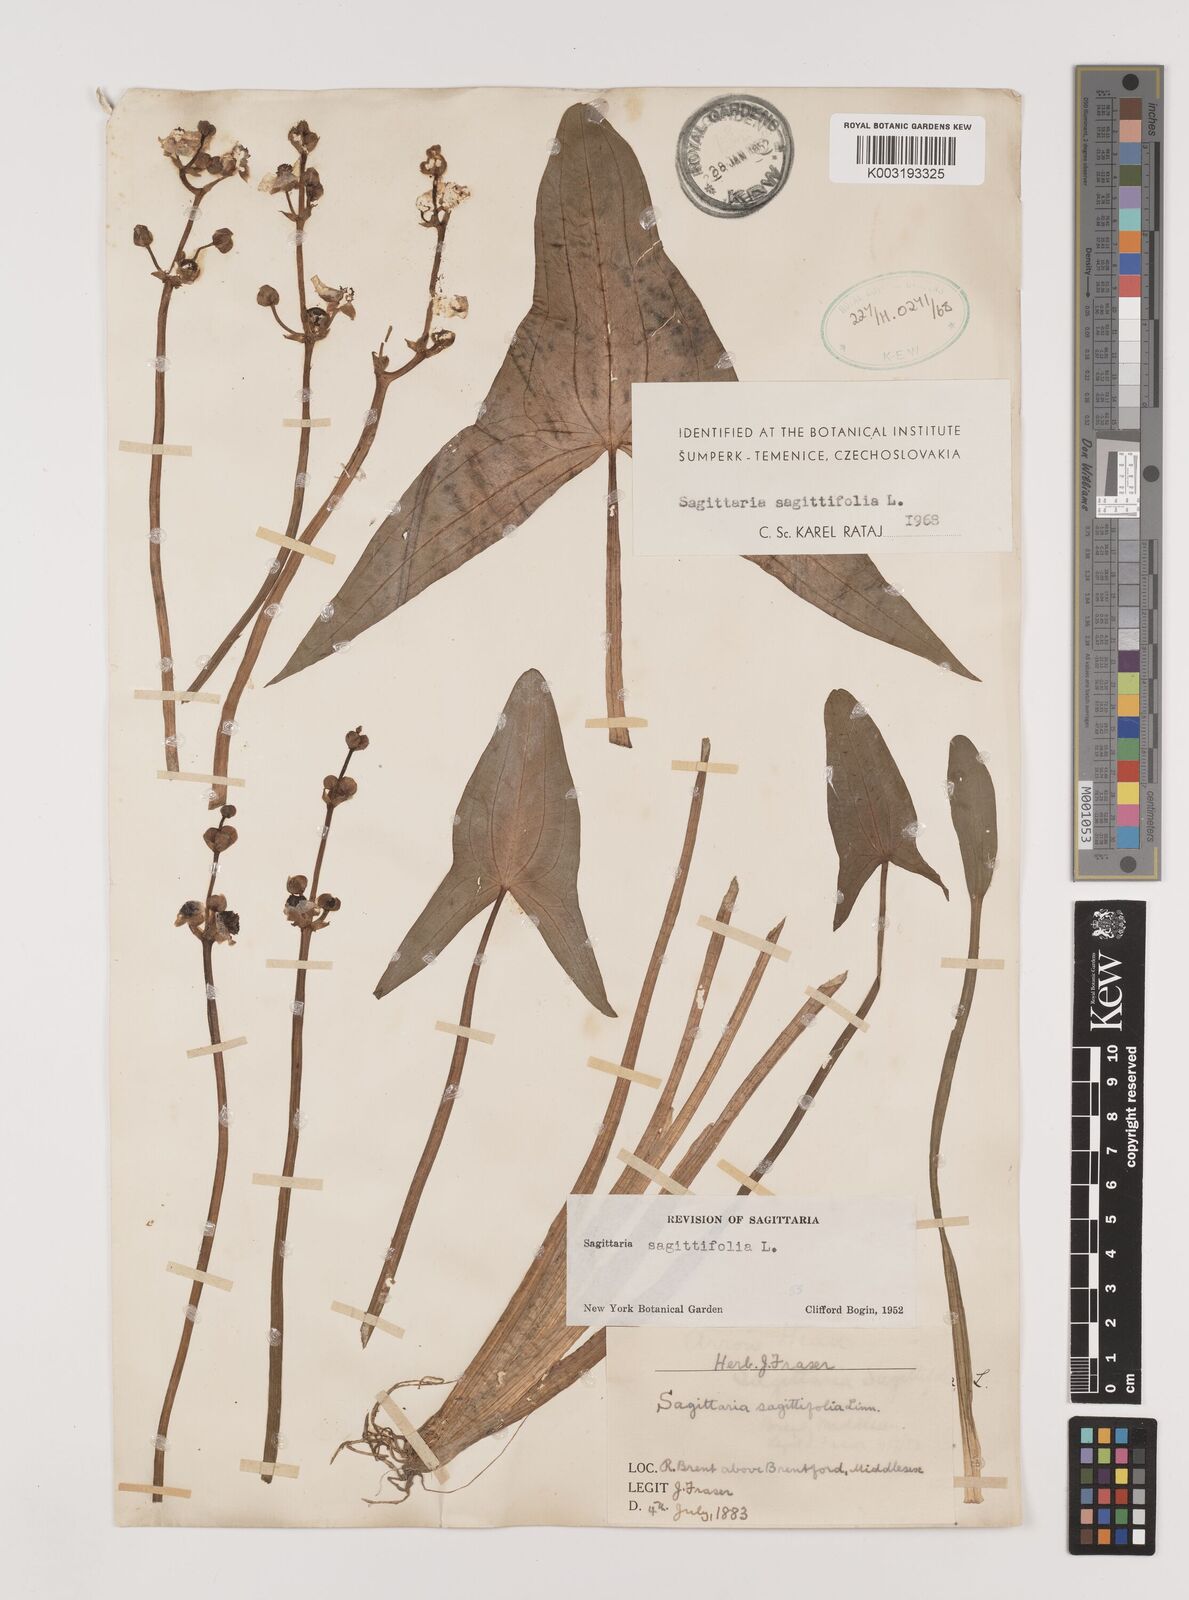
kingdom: Plantae
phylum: Tracheophyta
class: Liliopsida
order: Alismatales
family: Alismataceae
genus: Sagittaria
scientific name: Sagittaria sagittifolia
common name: Arrowhead
